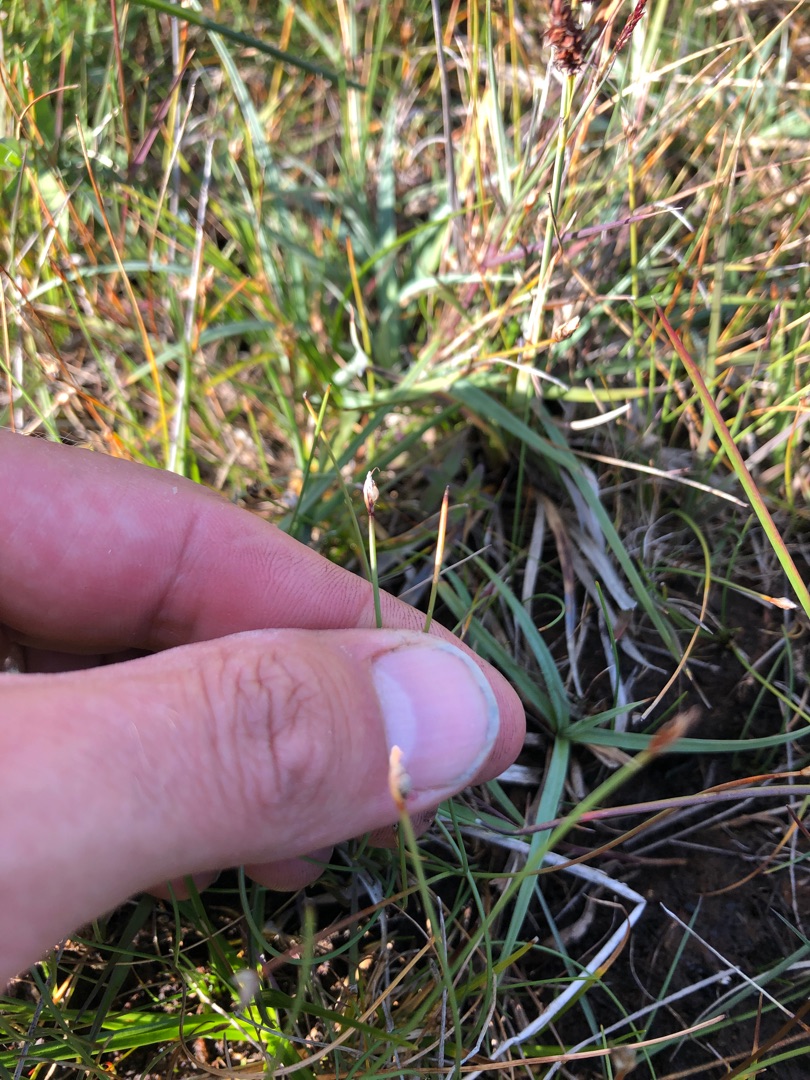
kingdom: Plantae
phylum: Tracheophyta
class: Liliopsida
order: Poales
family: Cyperaceae
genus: Eleocharis
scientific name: Eleocharis quinqueflora
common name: Fåblomstret kogleaks
